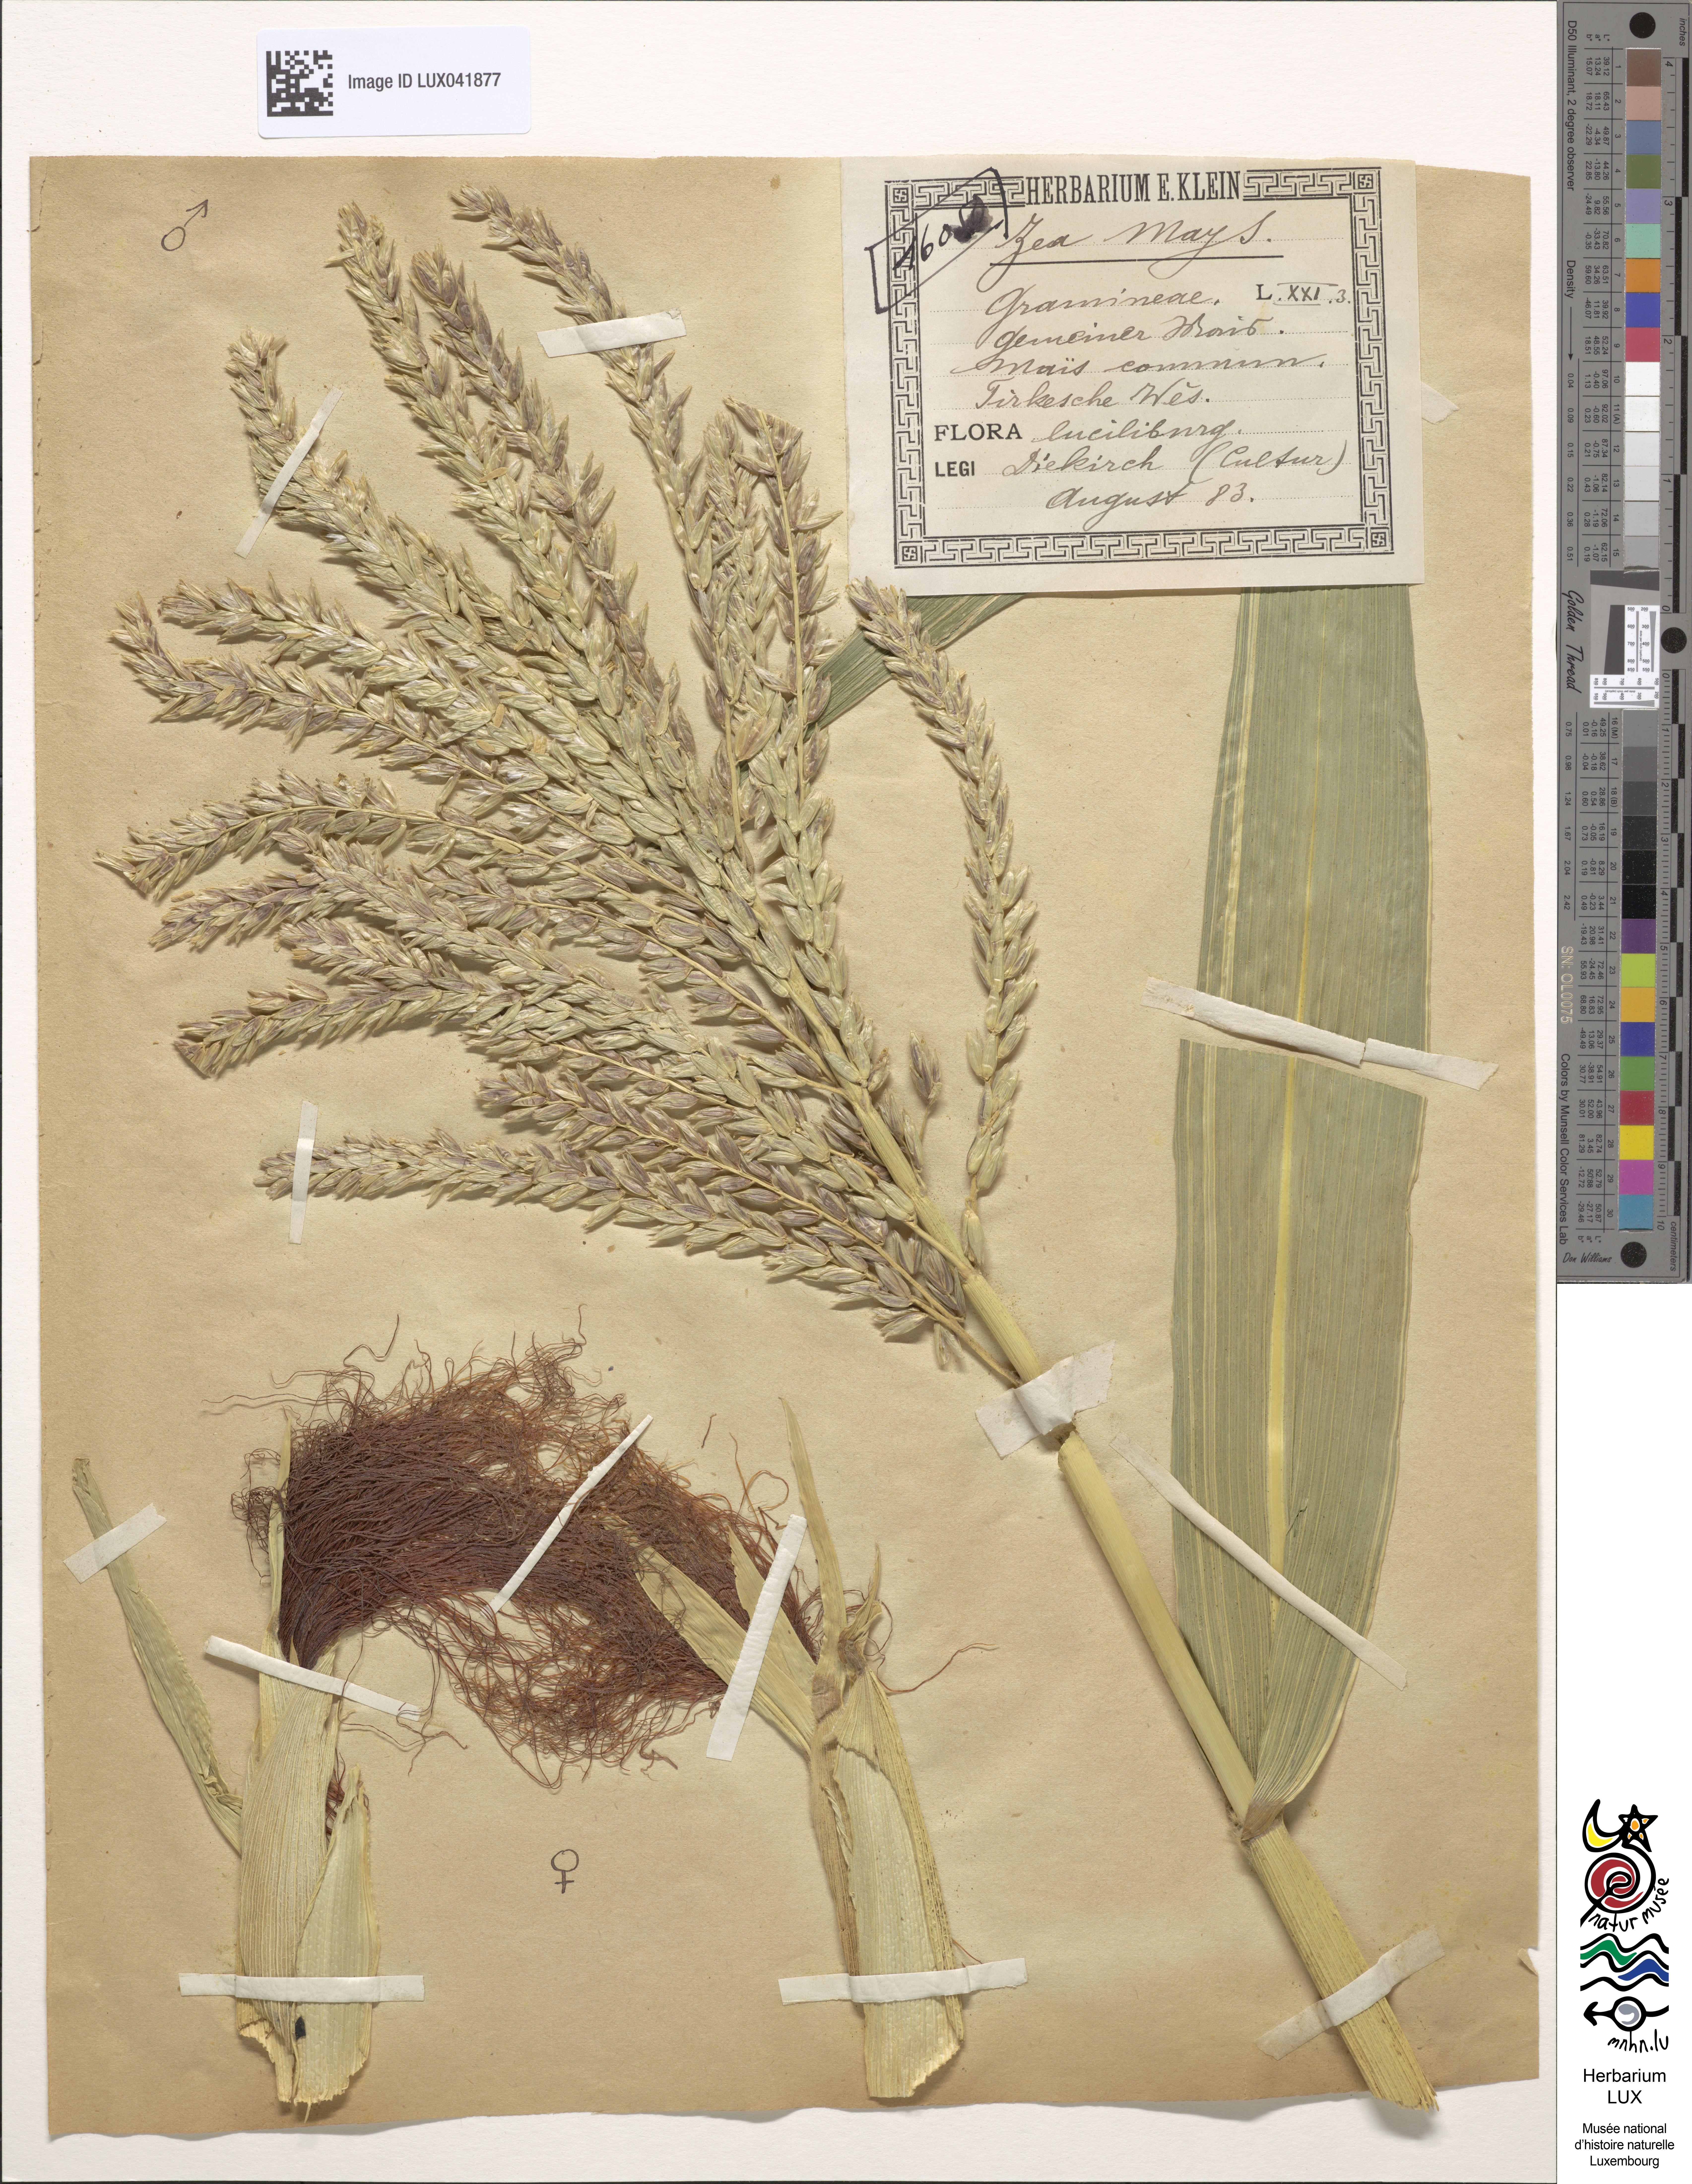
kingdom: Plantae
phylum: Tracheophyta
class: Liliopsida
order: Poales
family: Poaceae
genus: Zea
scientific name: Zea mays
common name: Maize
